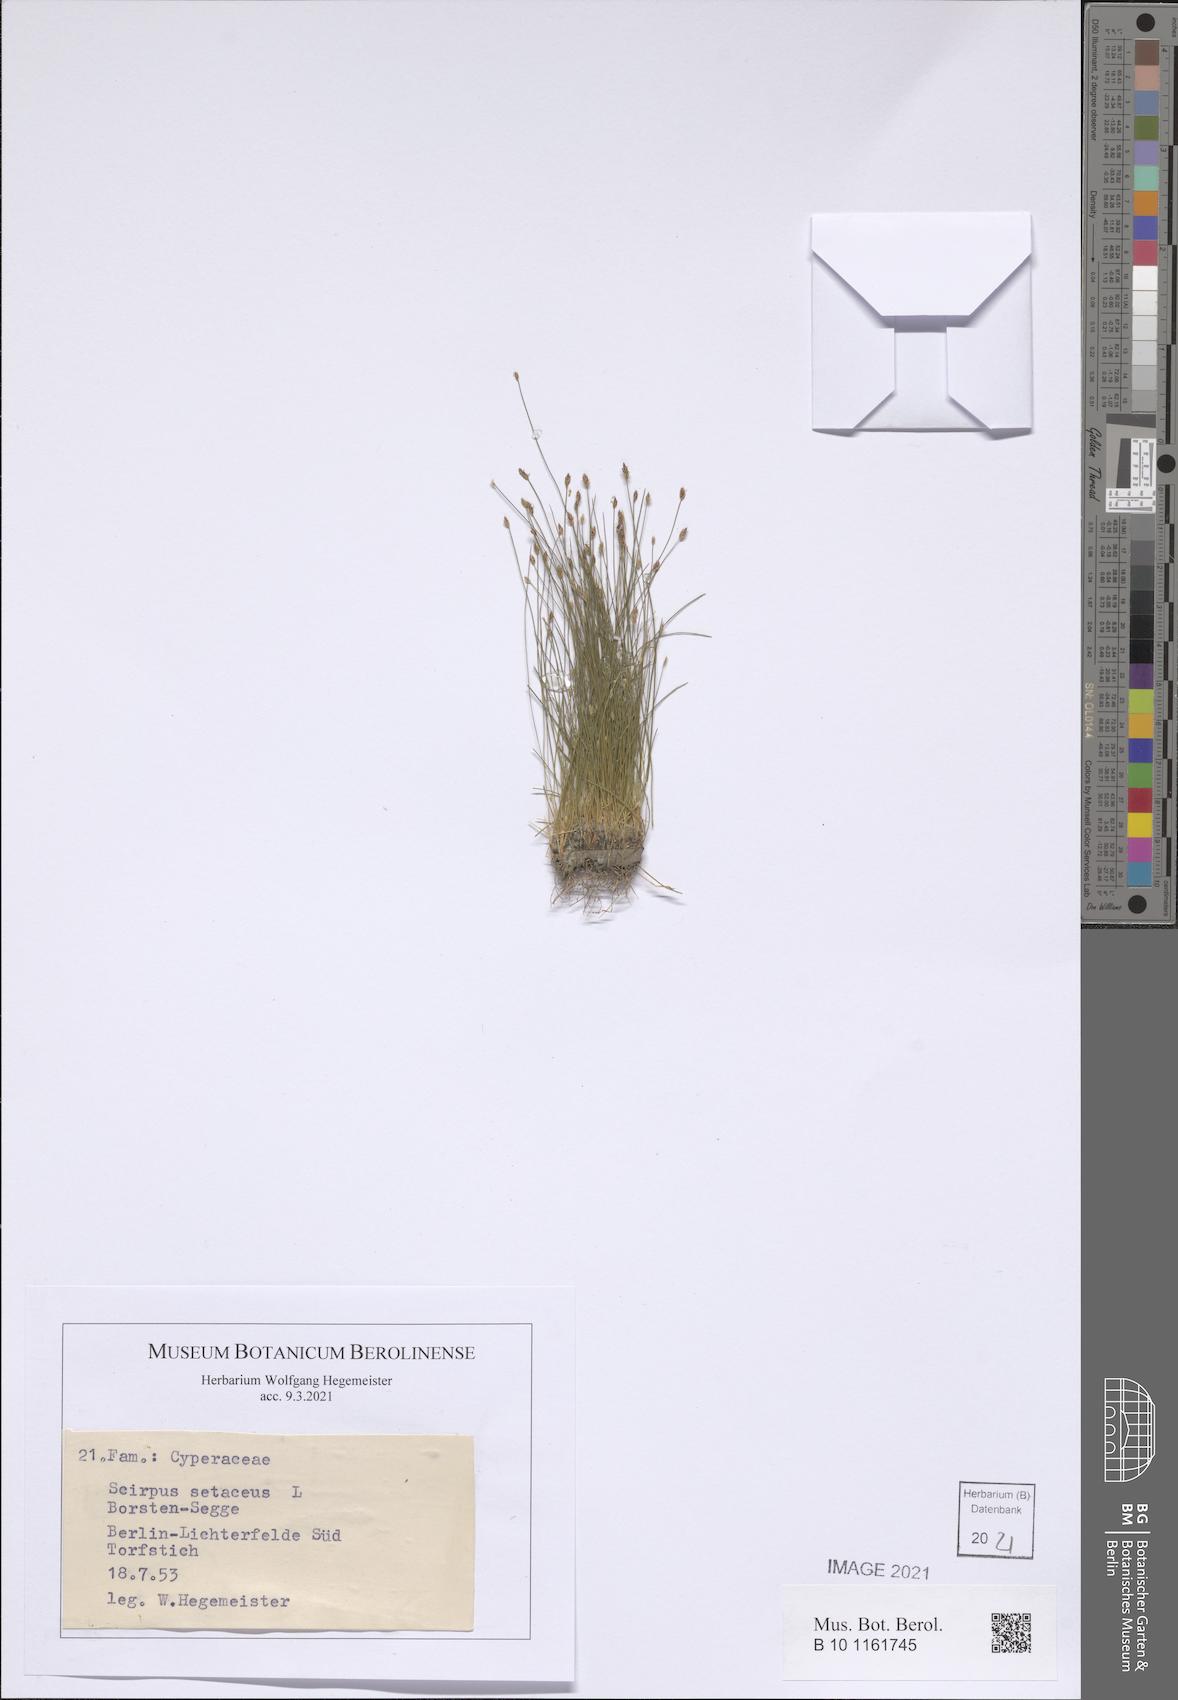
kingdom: Plantae
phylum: Tracheophyta
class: Liliopsida
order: Poales
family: Cyperaceae
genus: Isolepis
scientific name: Isolepis setacea
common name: Bristle club-rush
